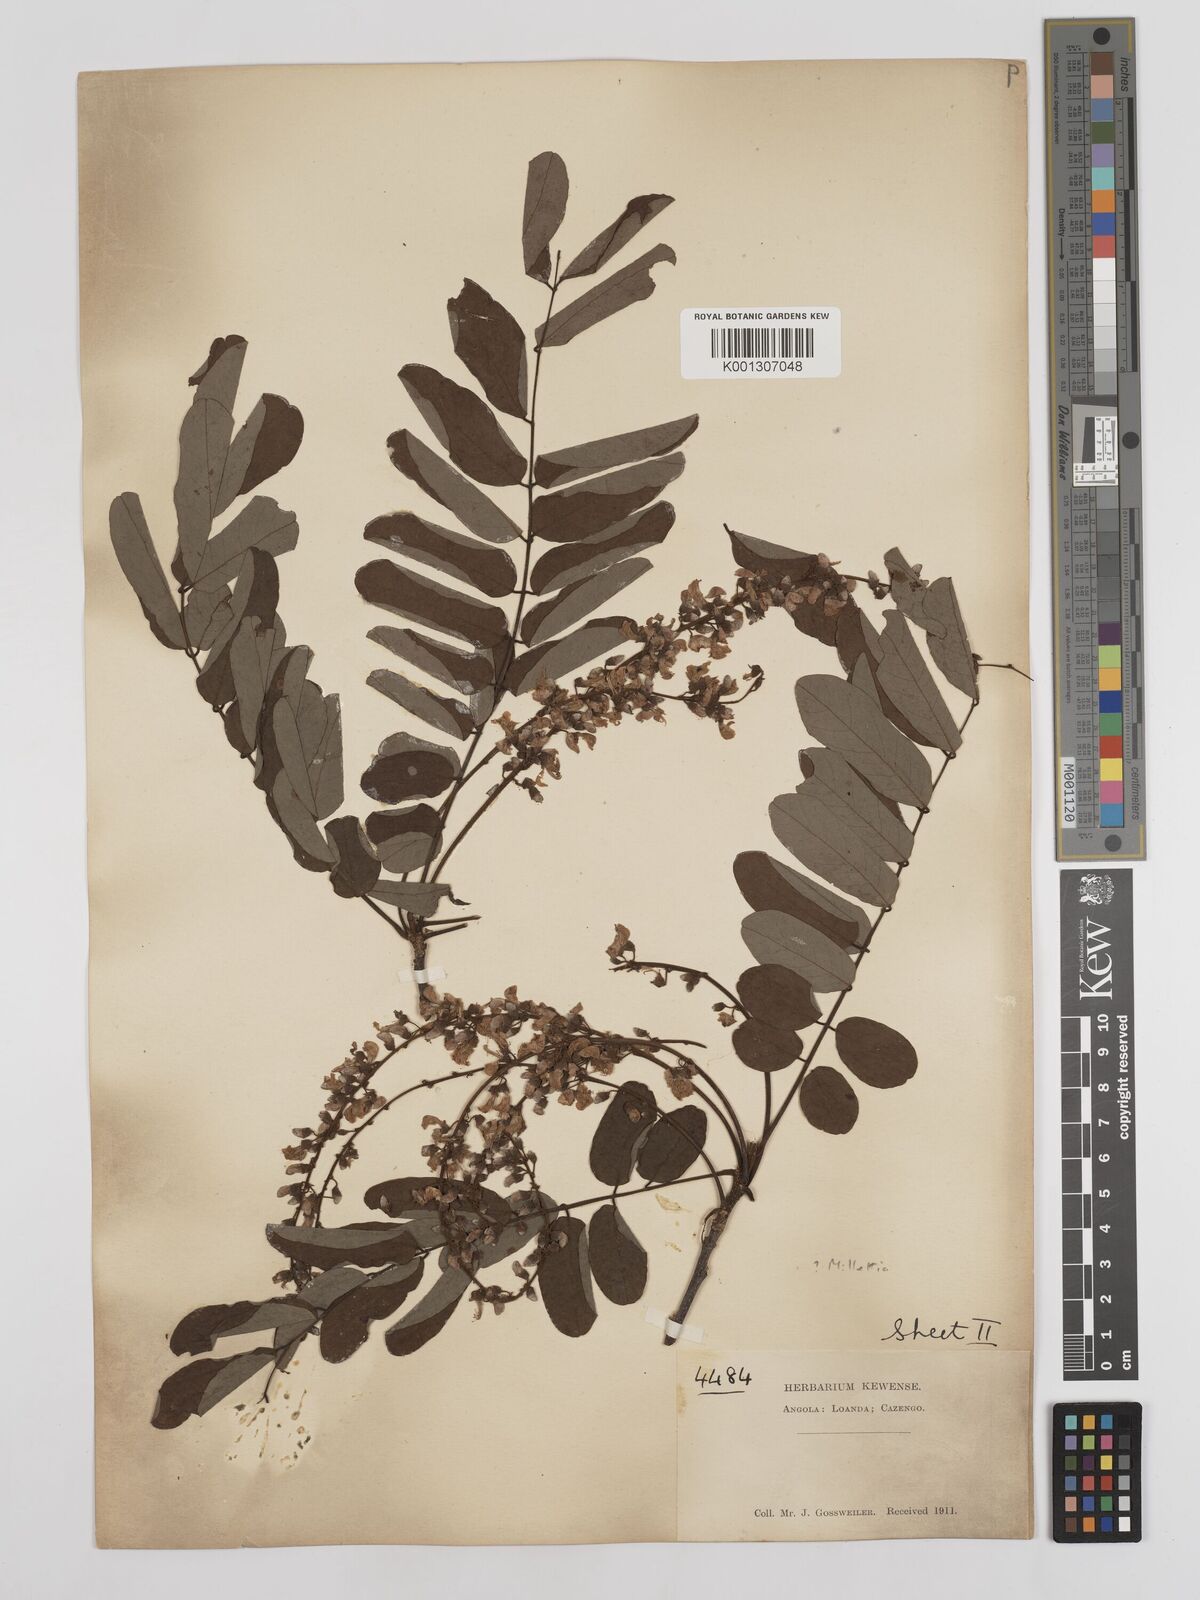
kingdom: Plantae
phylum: Tracheophyta
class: Magnoliopsida
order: Fabales
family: Fabaceae
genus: Millettia
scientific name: Millettia
